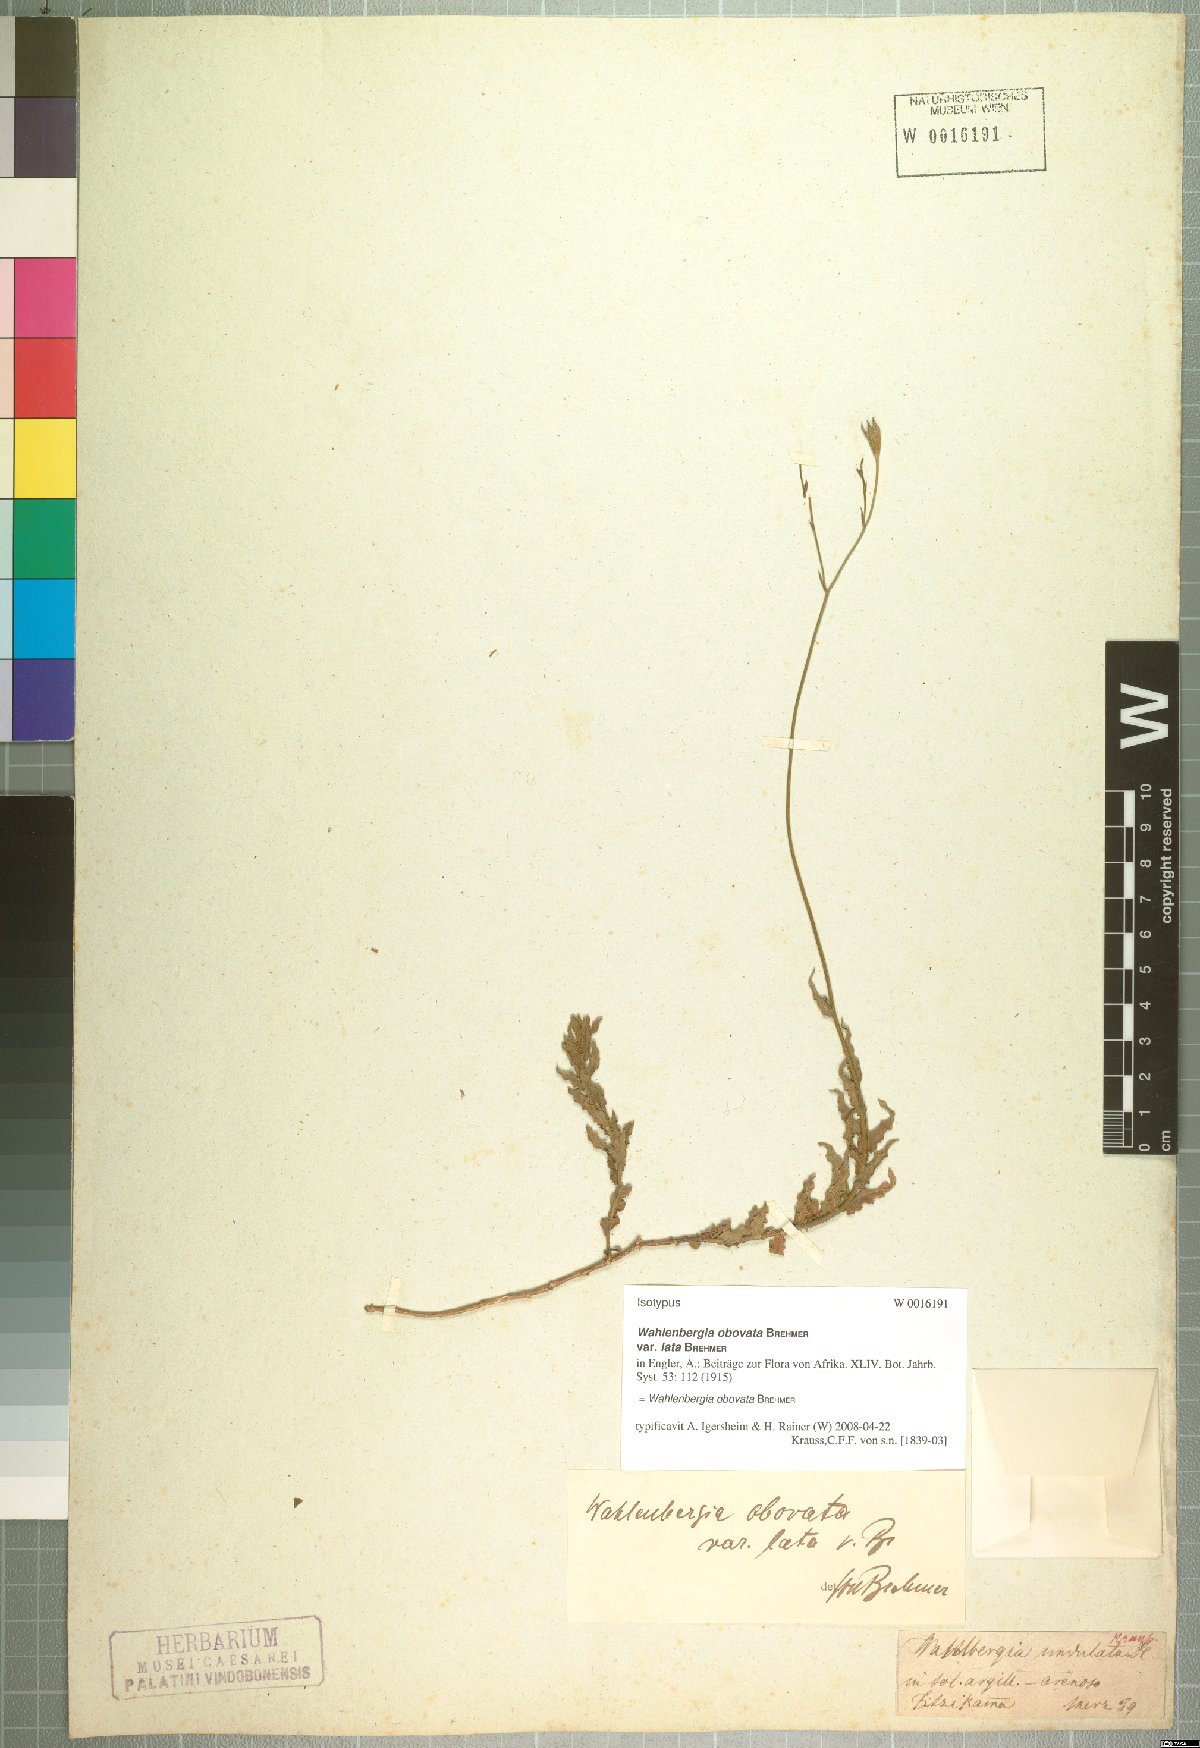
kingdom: Plantae
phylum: Tracheophyta
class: Magnoliopsida
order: Asterales
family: Campanulaceae
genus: Wahlenbergia
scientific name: Wahlenbergia obovata
